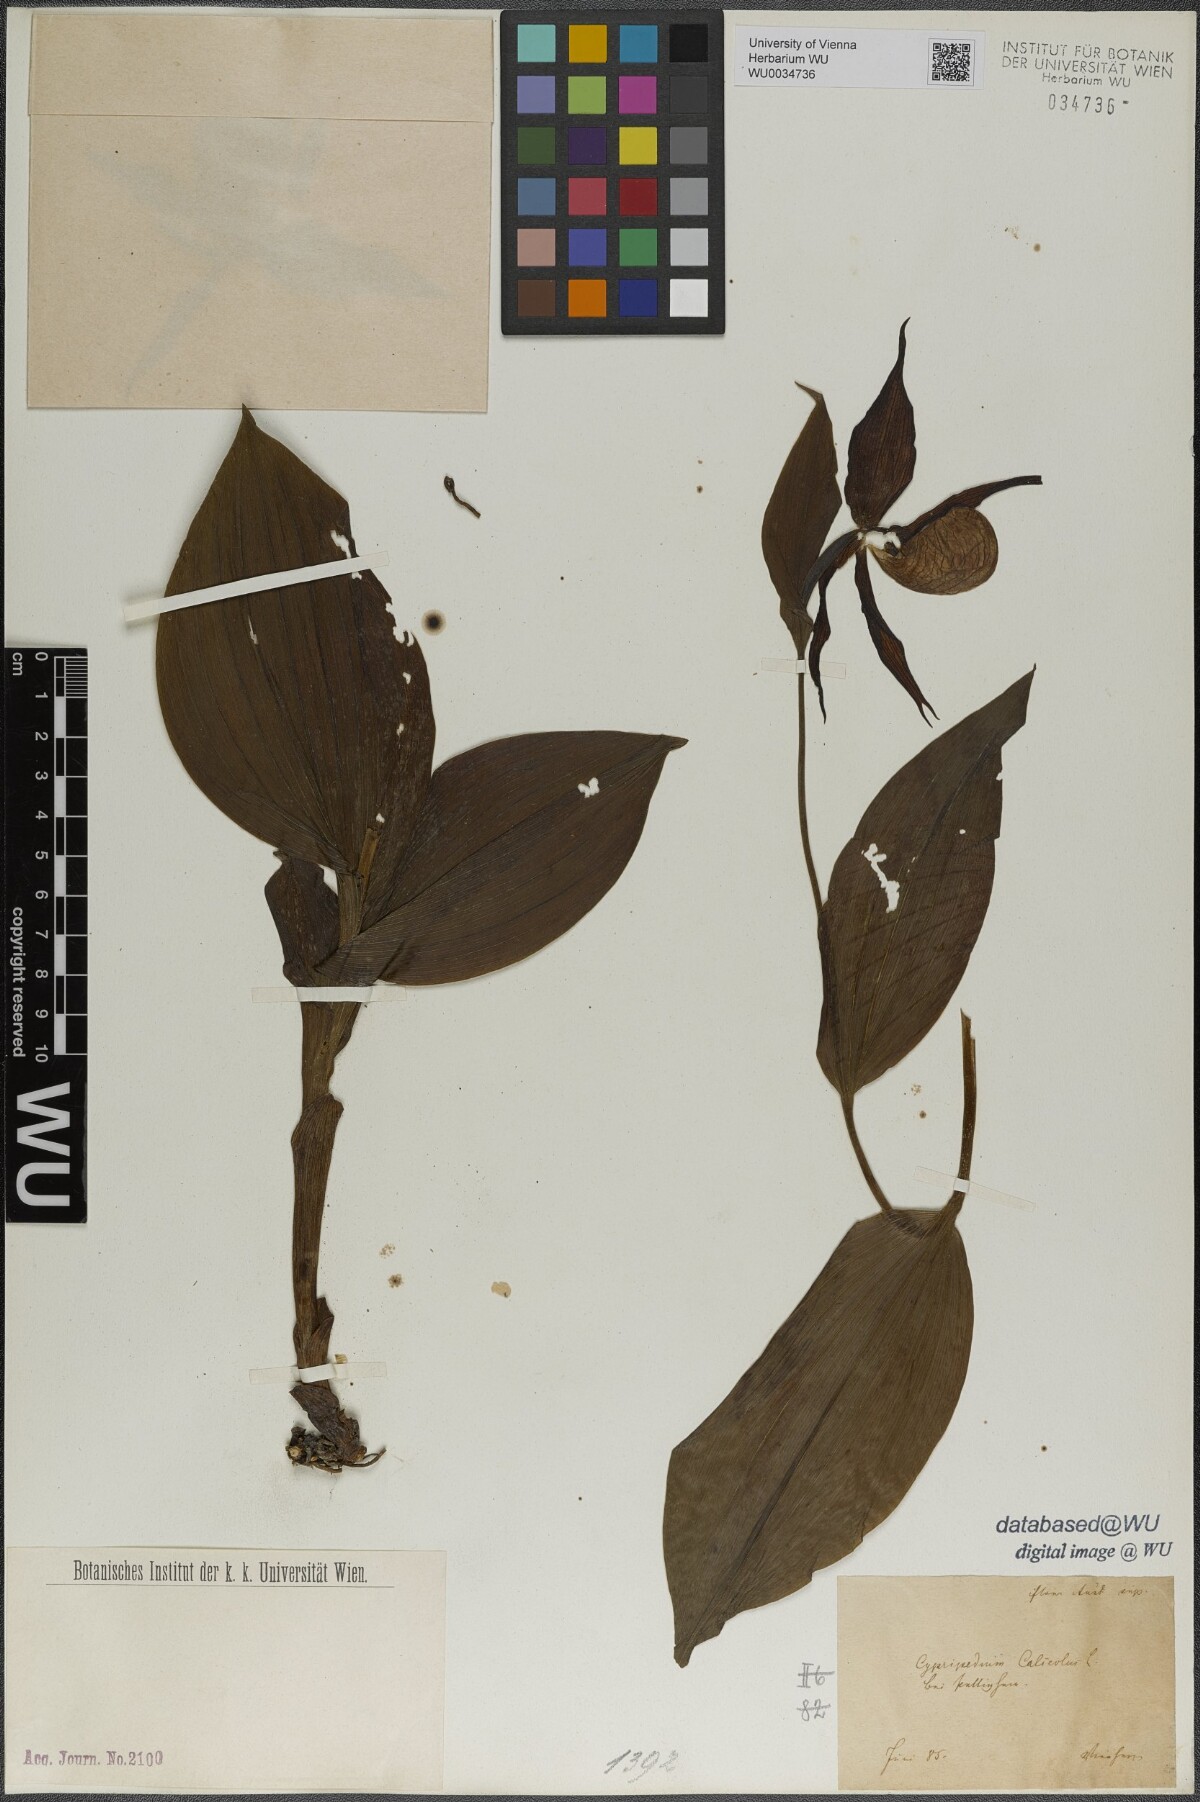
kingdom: Plantae
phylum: Tracheophyta
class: Liliopsida
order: Asparagales
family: Orchidaceae
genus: Cypripedium
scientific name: Cypripedium calceolus
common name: Lady's-slipper
